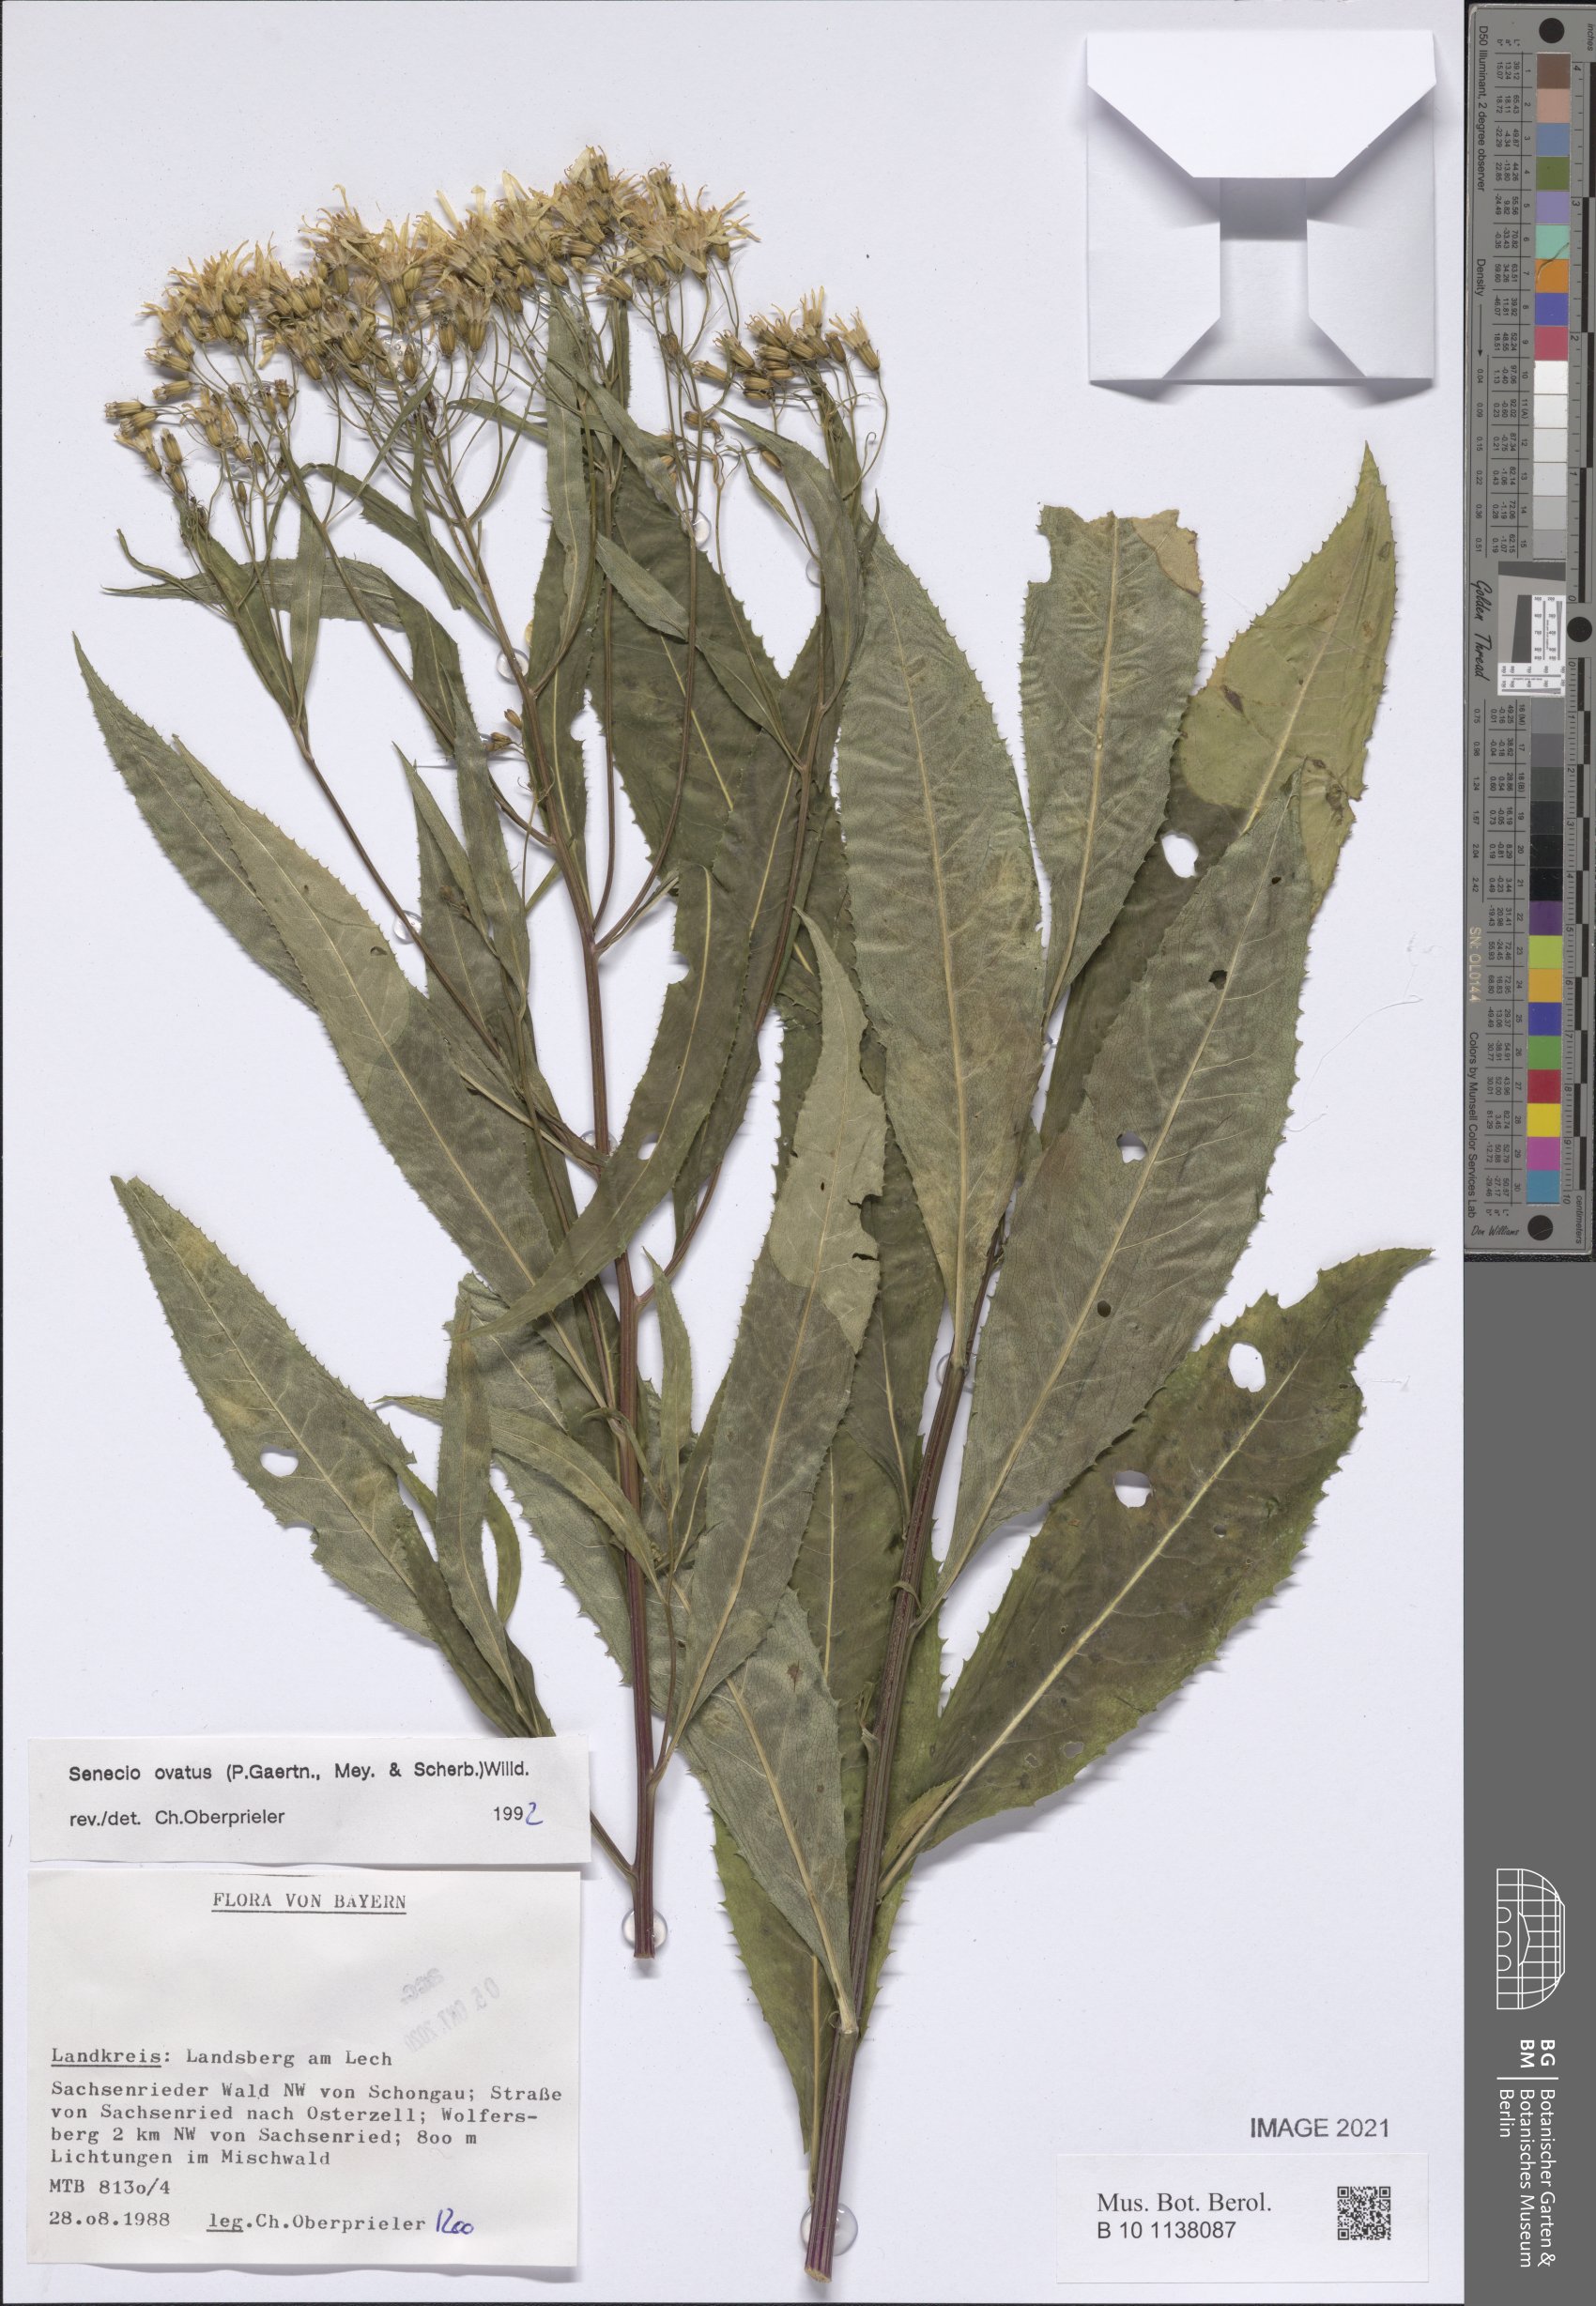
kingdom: Plantae
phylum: Tracheophyta
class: Magnoliopsida
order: Asterales
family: Asteraceae
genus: Senecio
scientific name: Senecio ovatus
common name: Wood ragwort
